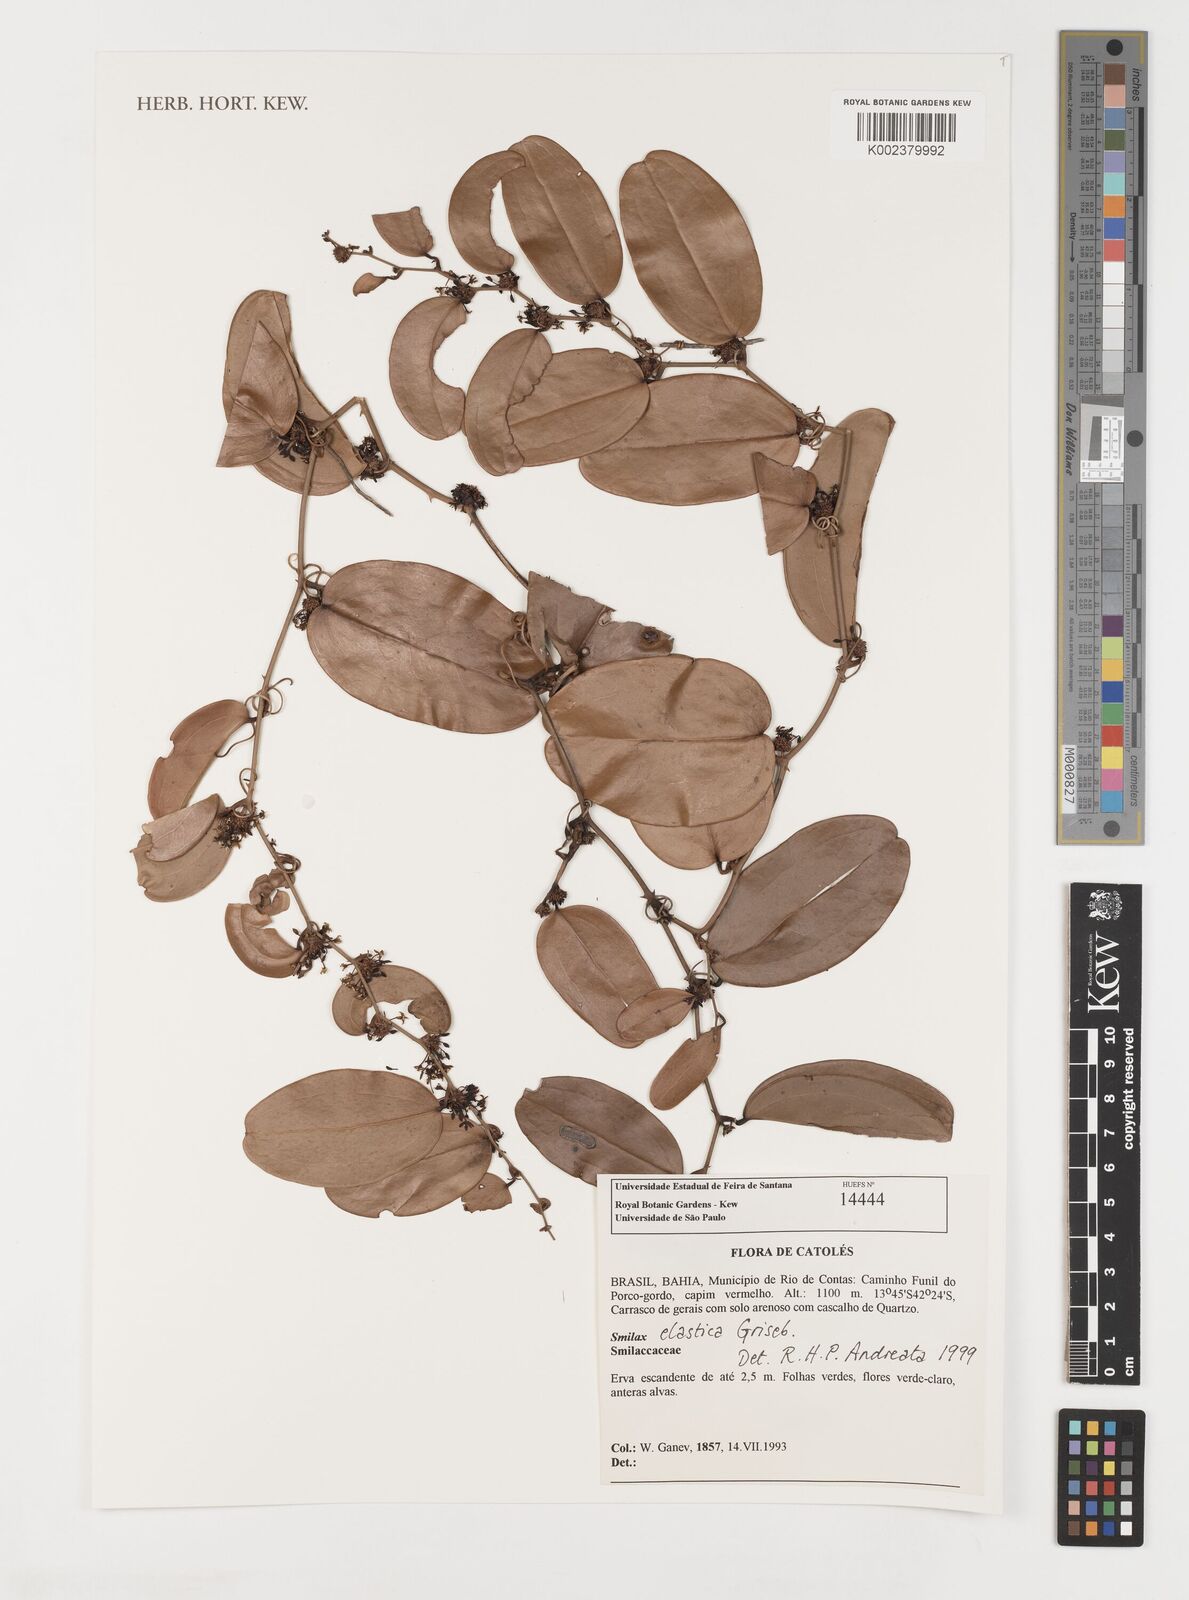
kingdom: Plantae
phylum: Tracheophyta
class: Liliopsida
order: Liliales
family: Smilacaceae
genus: Smilax
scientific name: Smilax elastica
